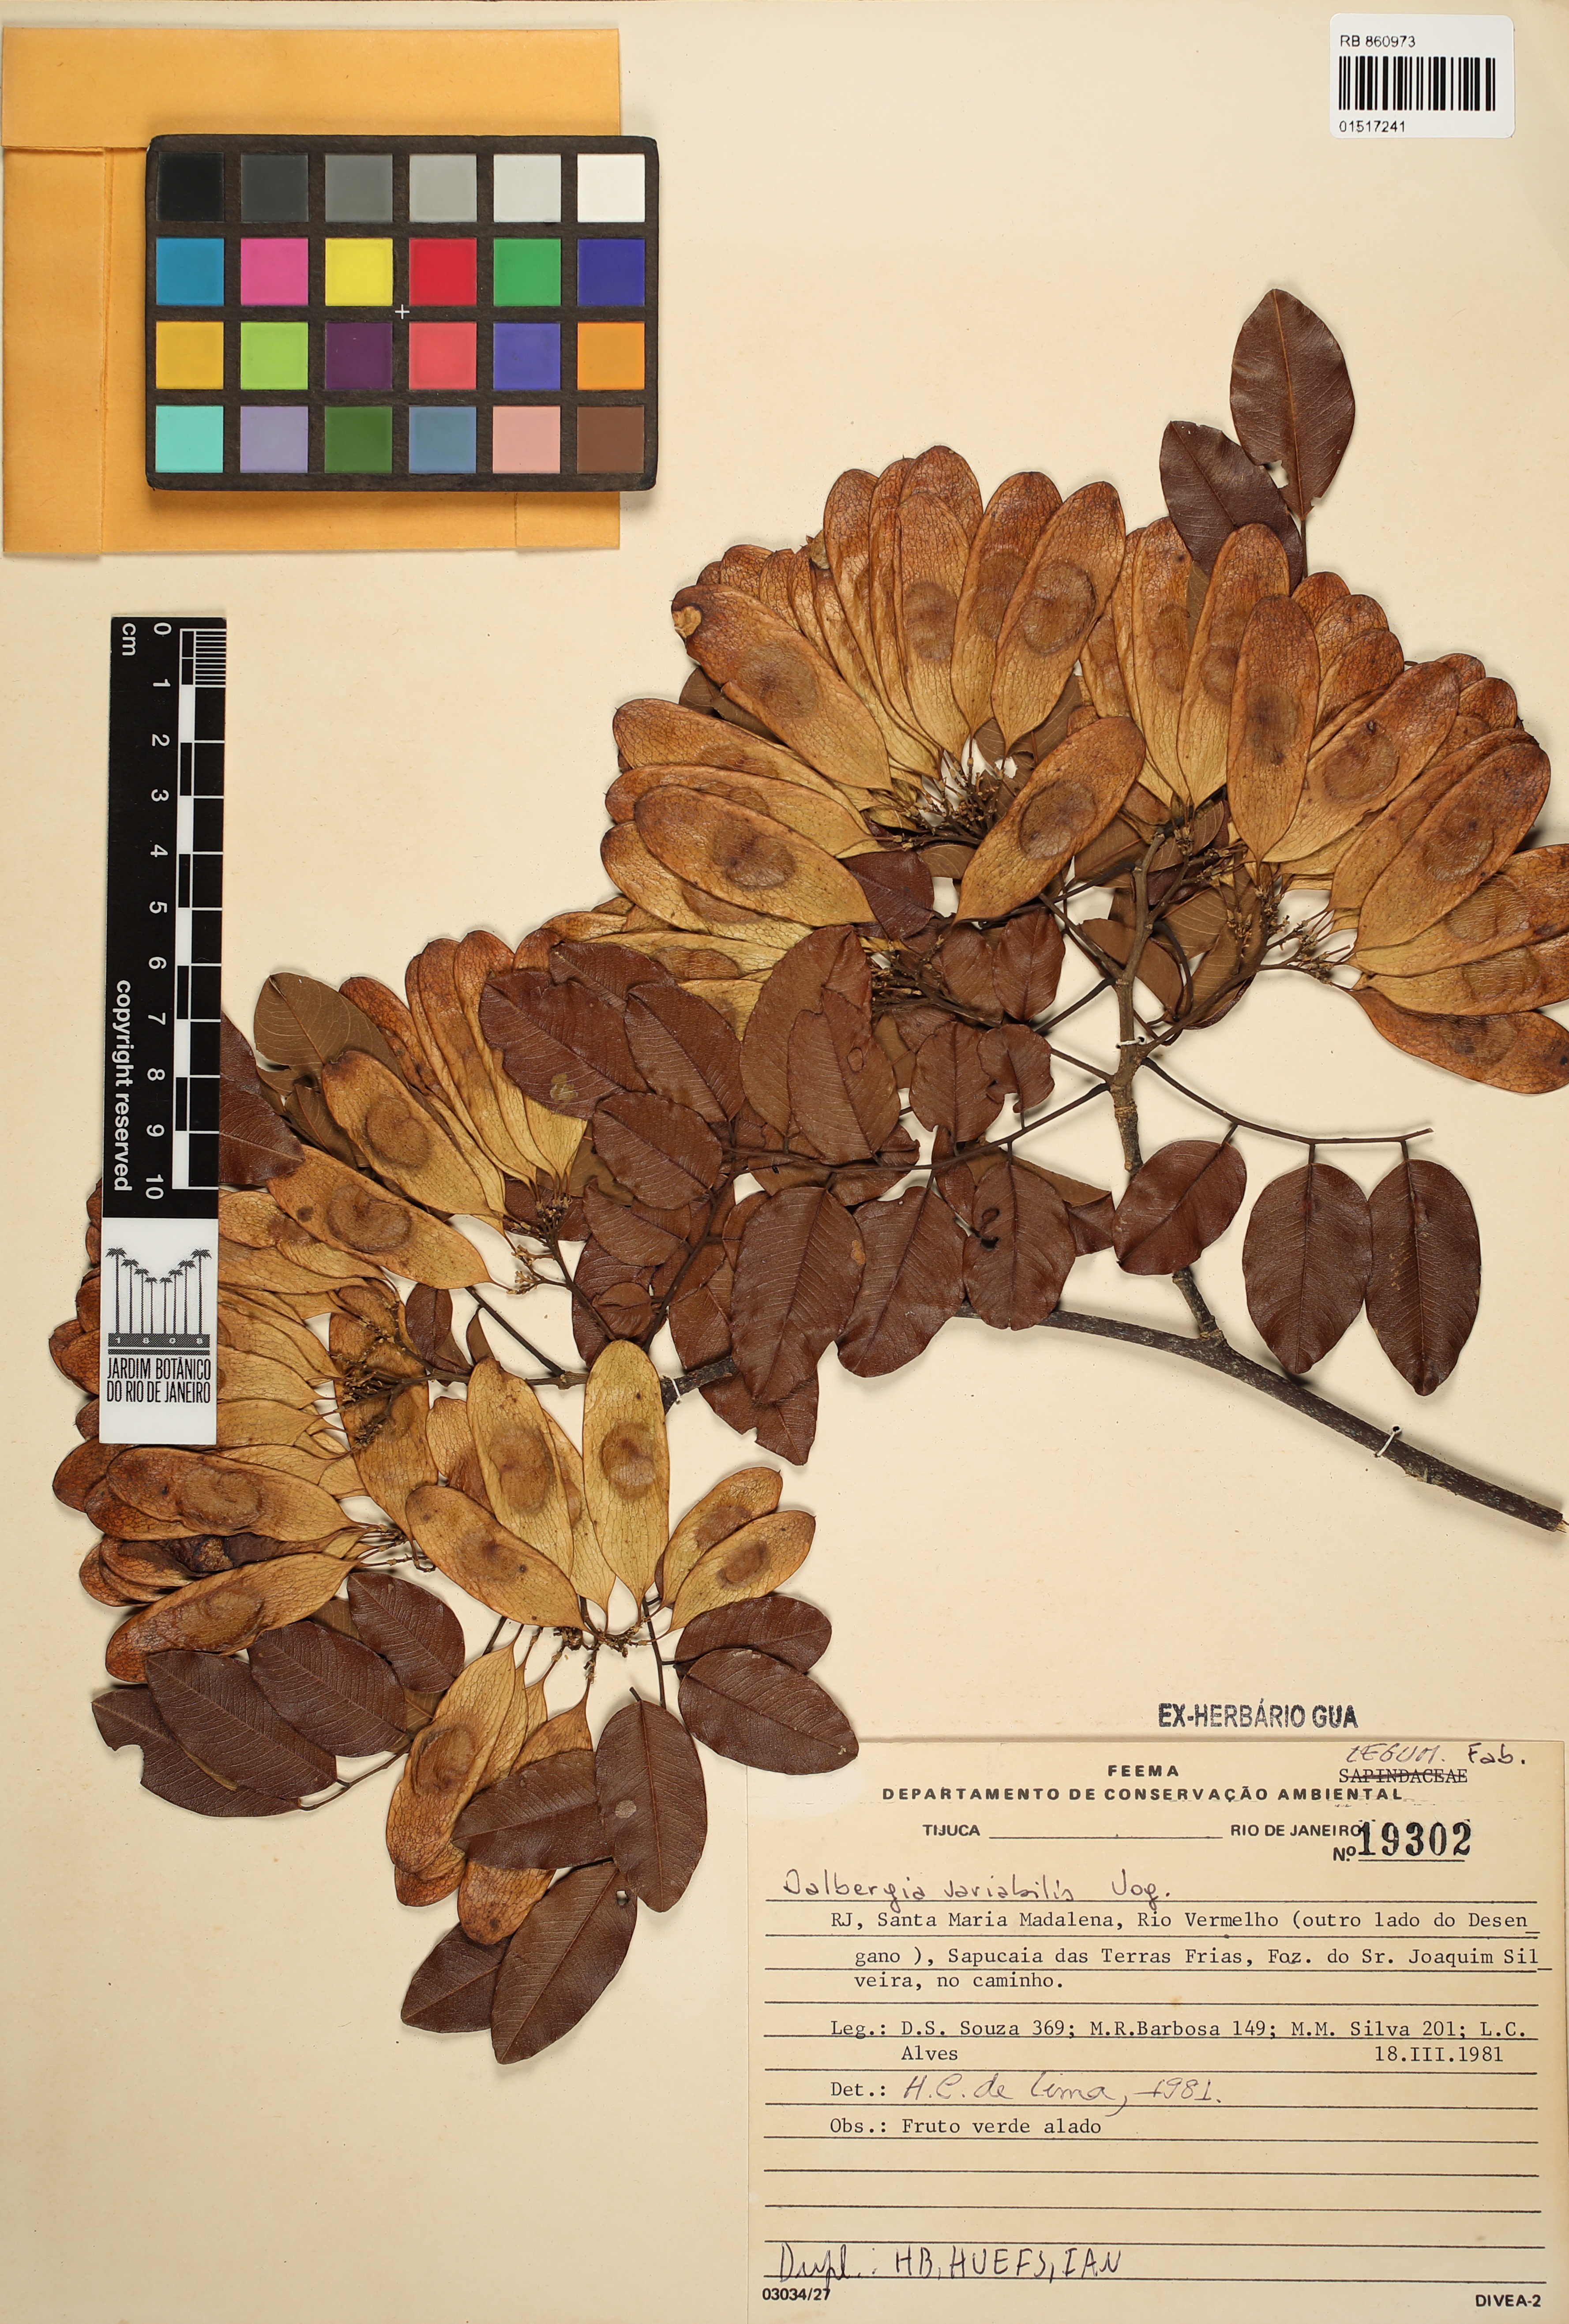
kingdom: Plantae
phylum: Tracheophyta
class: Magnoliopsida
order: Fabales
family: Fabaceae
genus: Dalbergia
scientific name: Dalbergia frutescens
